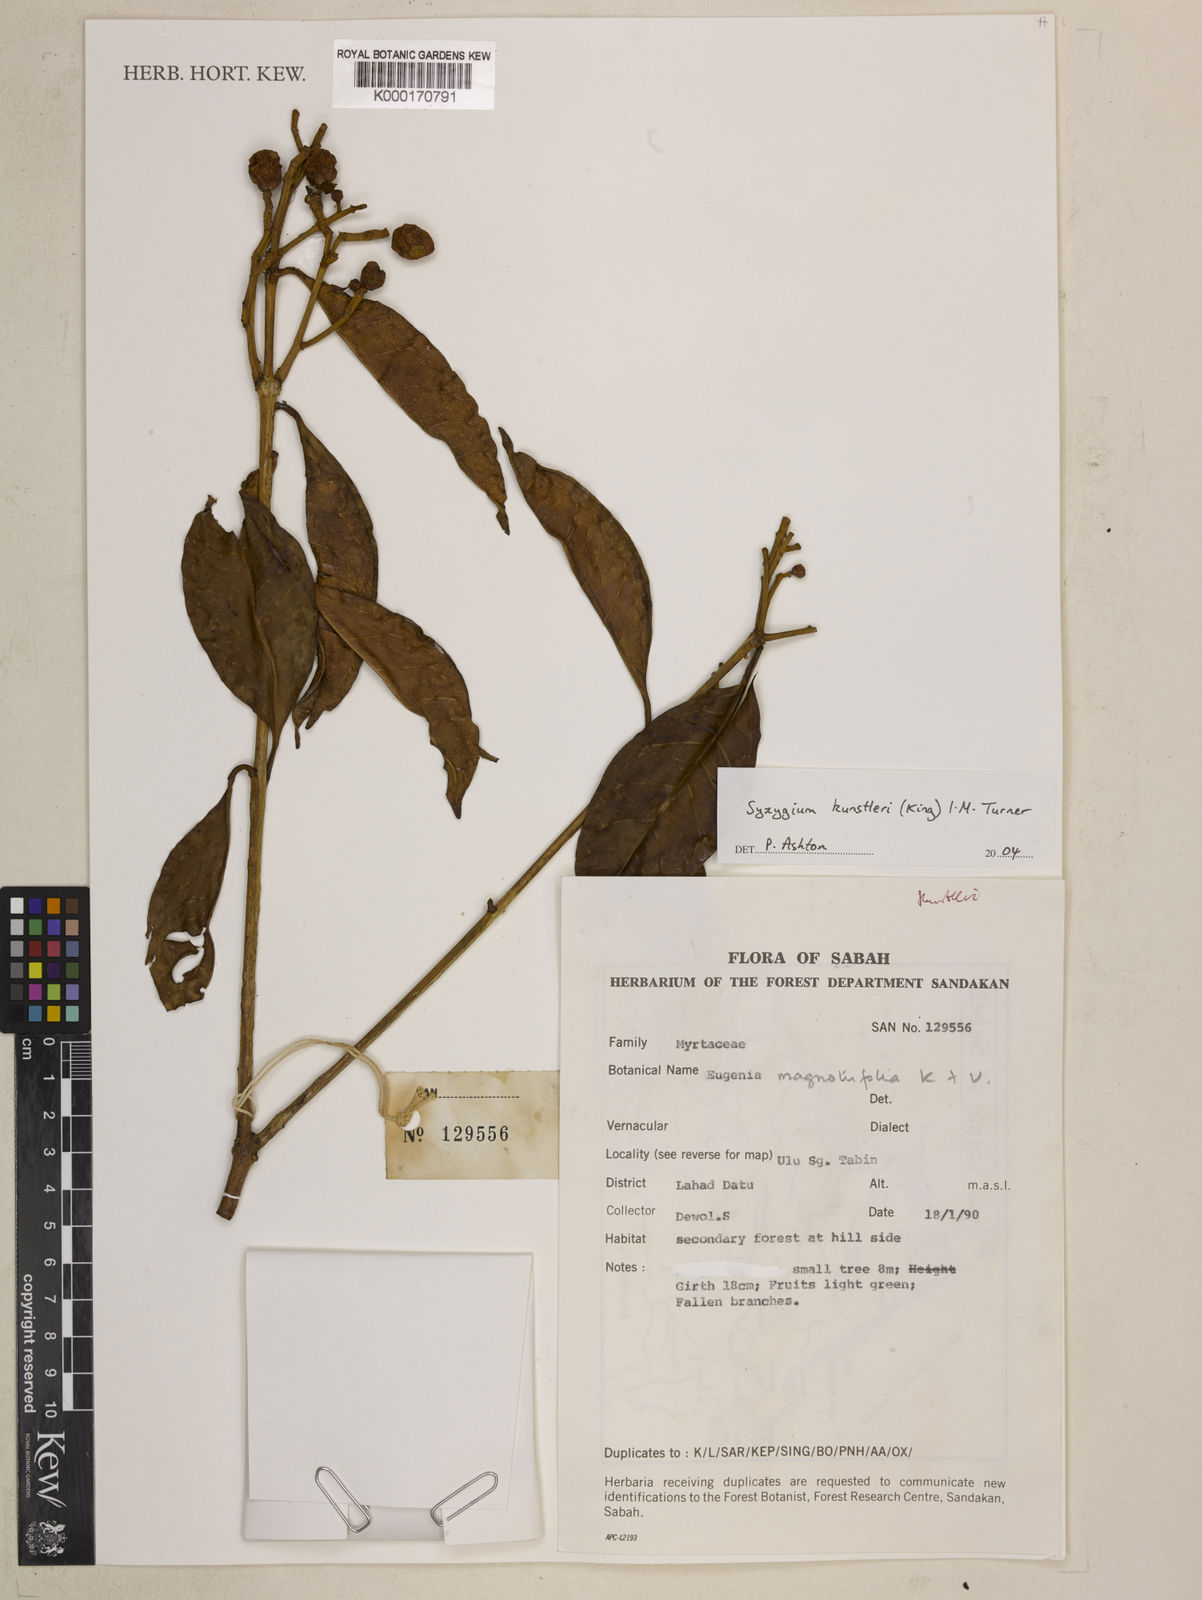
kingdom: Plantae
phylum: Tracheophyta
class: Magnoliopsida
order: Myrtales
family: Myrtaceae
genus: Syzygium
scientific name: Syzygium
